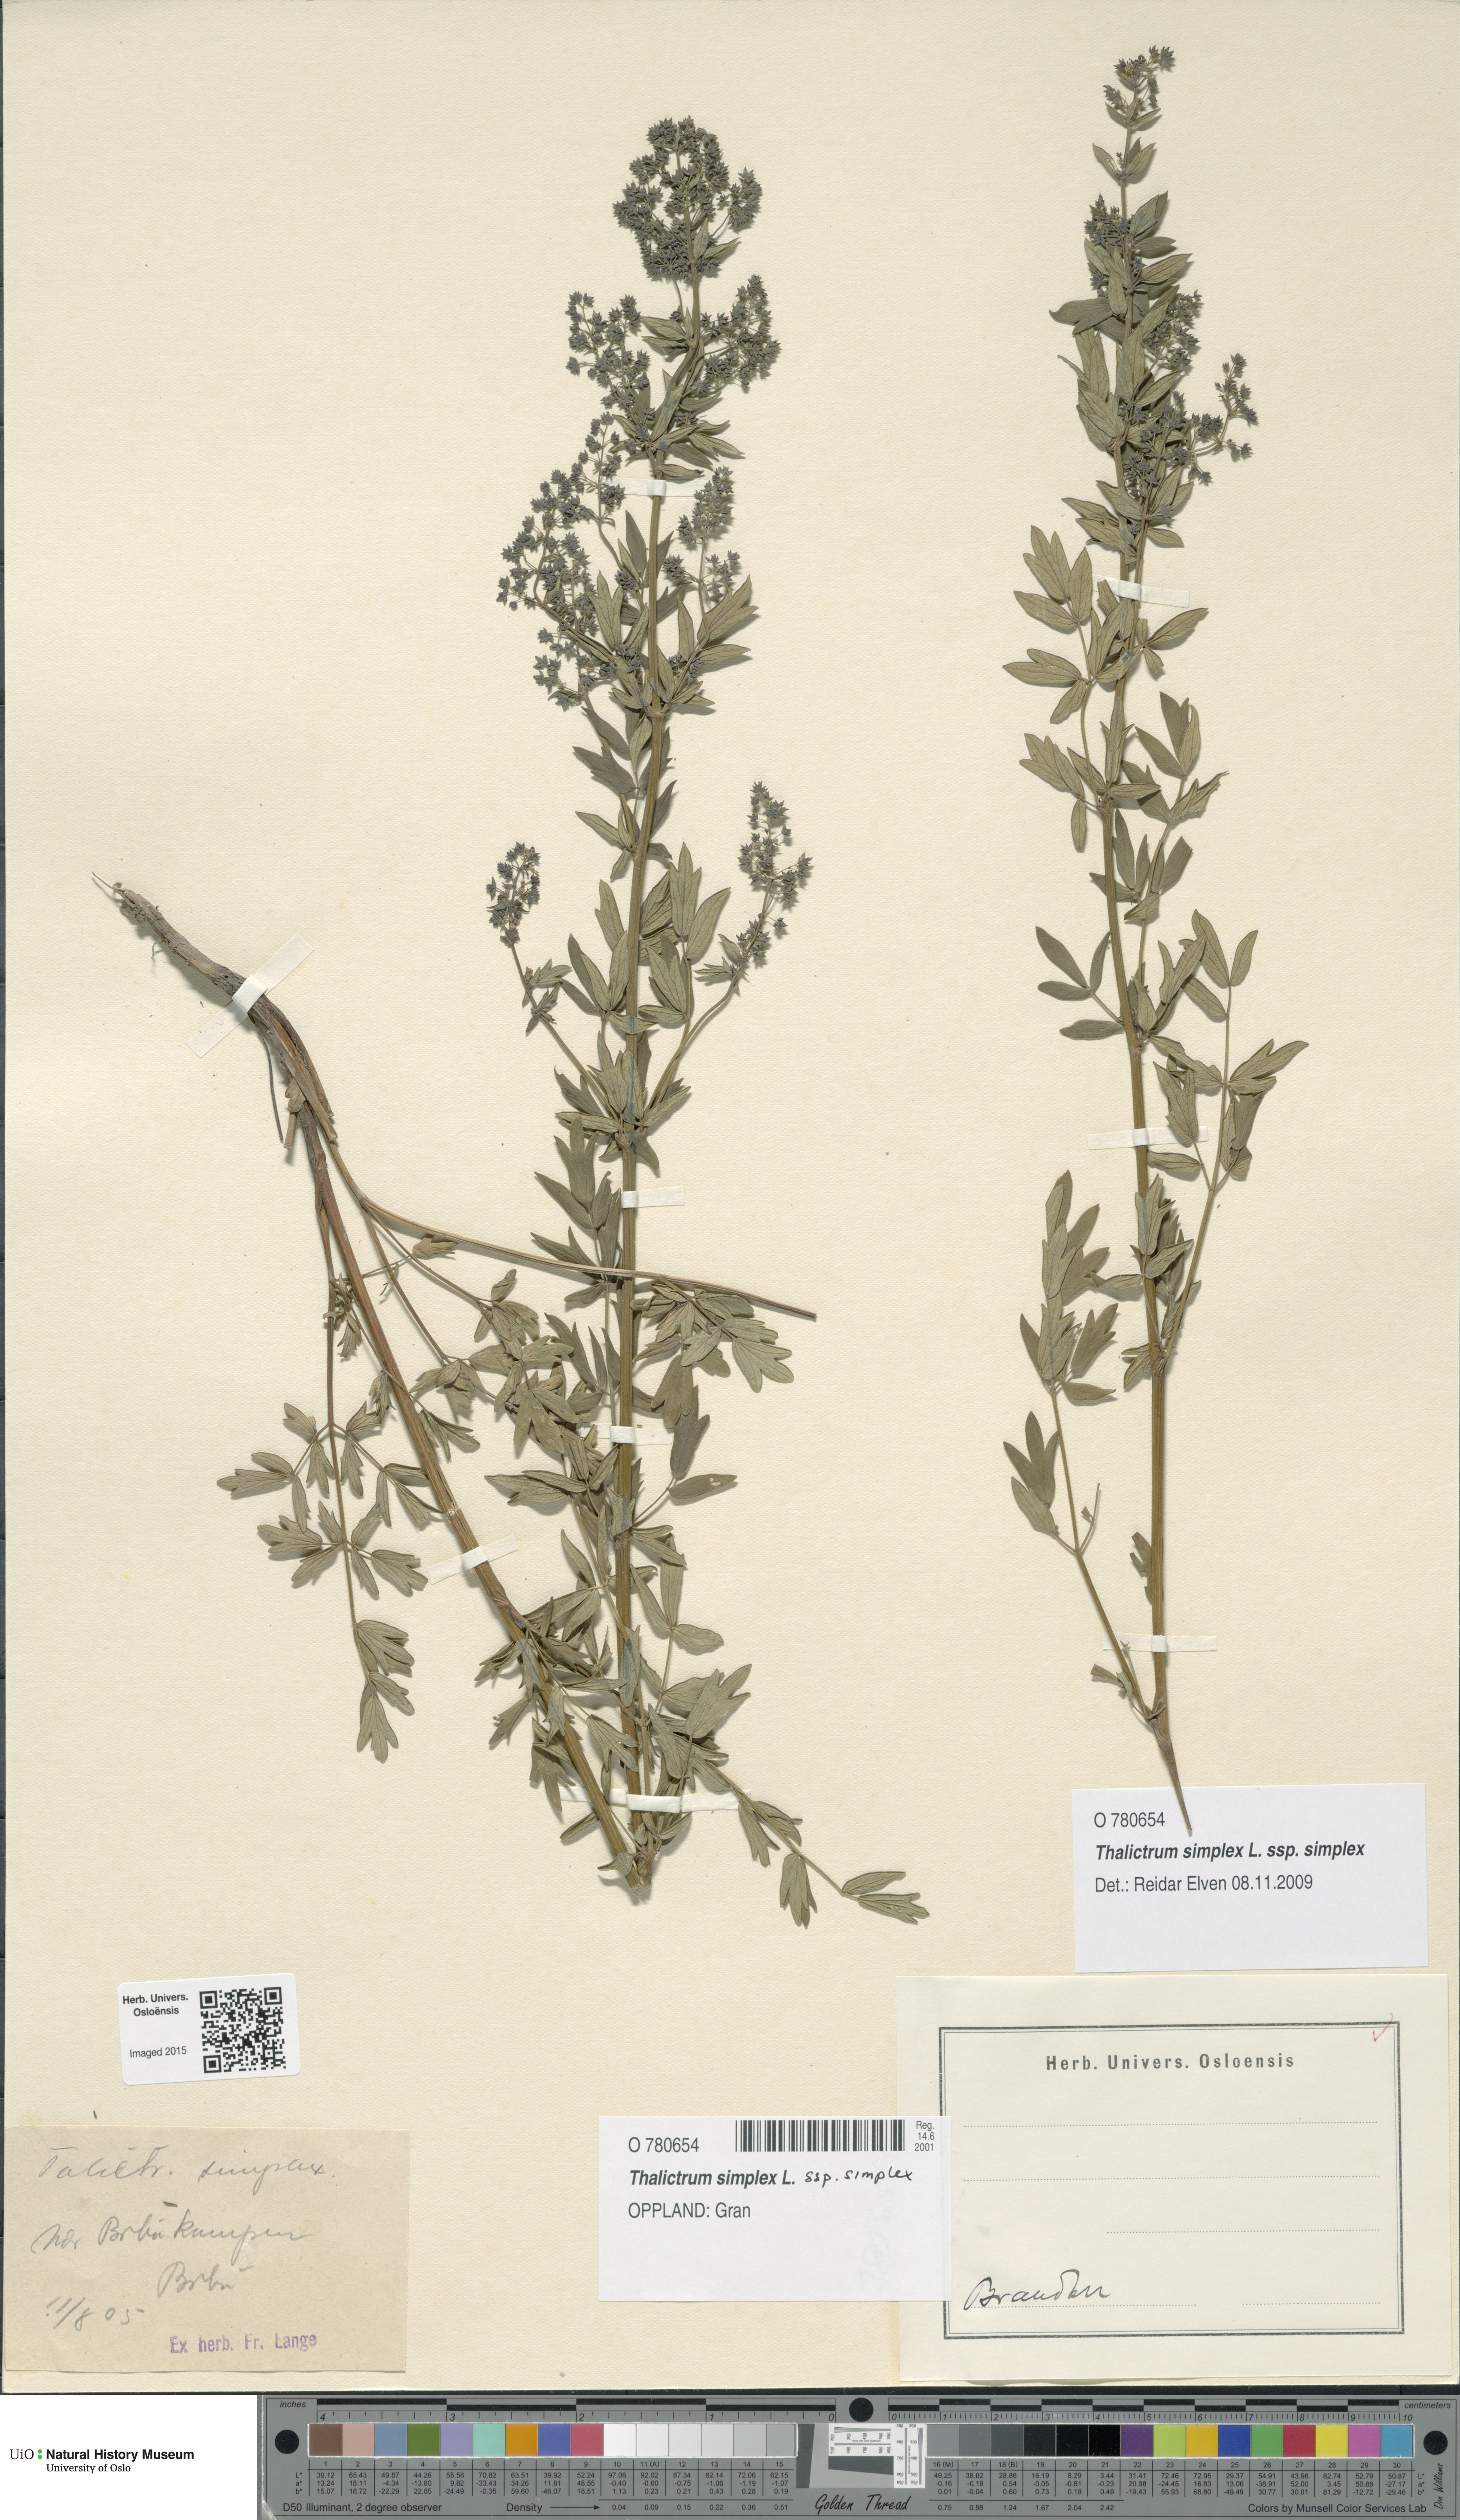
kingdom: Plantae
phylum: Tracheophyta
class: Magnoliopsida
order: Ranunculales
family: Ranunculaceae
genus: Thalictrum
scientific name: Thalictrum simplex
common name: Small meadow-rue
